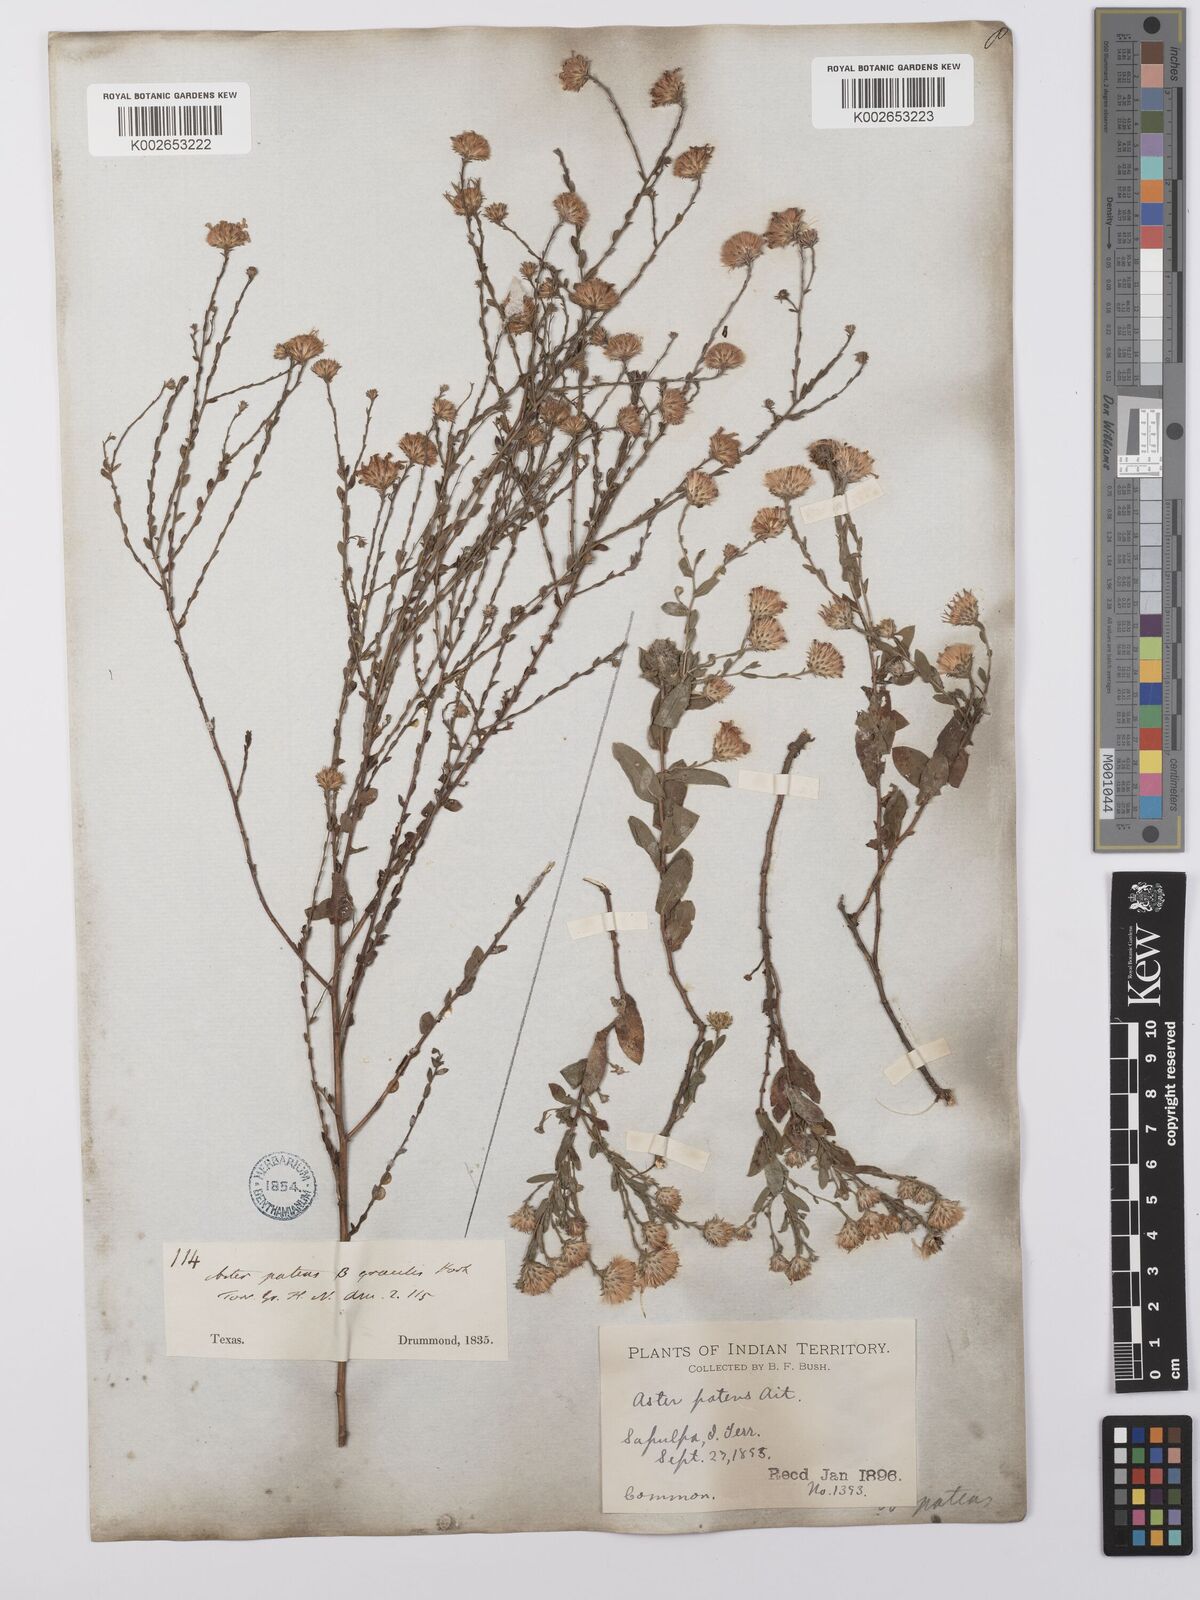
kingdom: Plantae
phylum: Tracheophyta
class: Magnoliopsida
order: Asterales
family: Asteraceae
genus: Symphyotrichum
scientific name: Symphyotrichum patens
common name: Late purple aster
